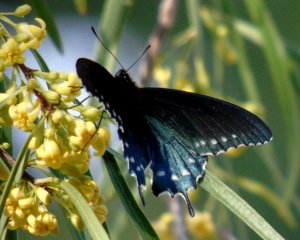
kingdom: Animalia
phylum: Arthropoda
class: Insecta
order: Lepidoptera
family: Papilionidae
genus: Battus
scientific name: Battus philenor
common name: Pipevine Swallowtail
